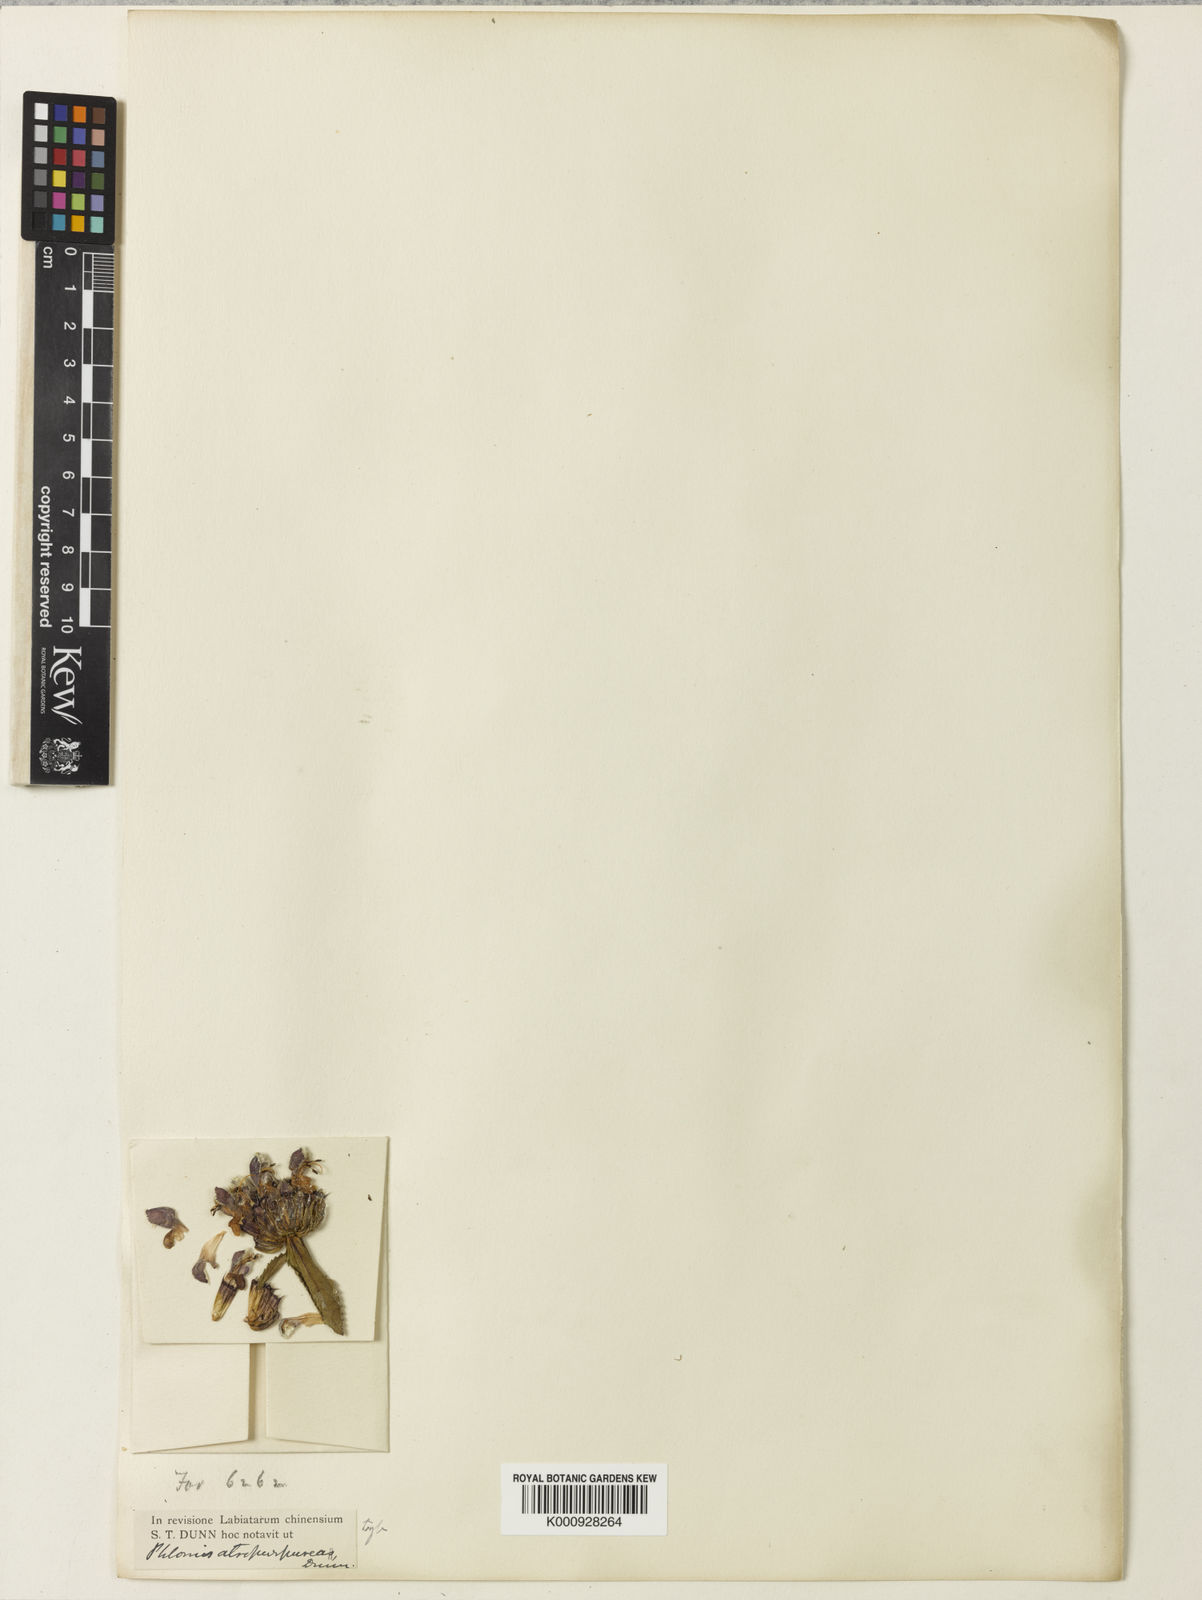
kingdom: Plantae
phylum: Tracheophyta
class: Magnoliopsida
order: Lamiales
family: Lamiaceae
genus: Phlomoides
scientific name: Phlomoides atropurpurea
